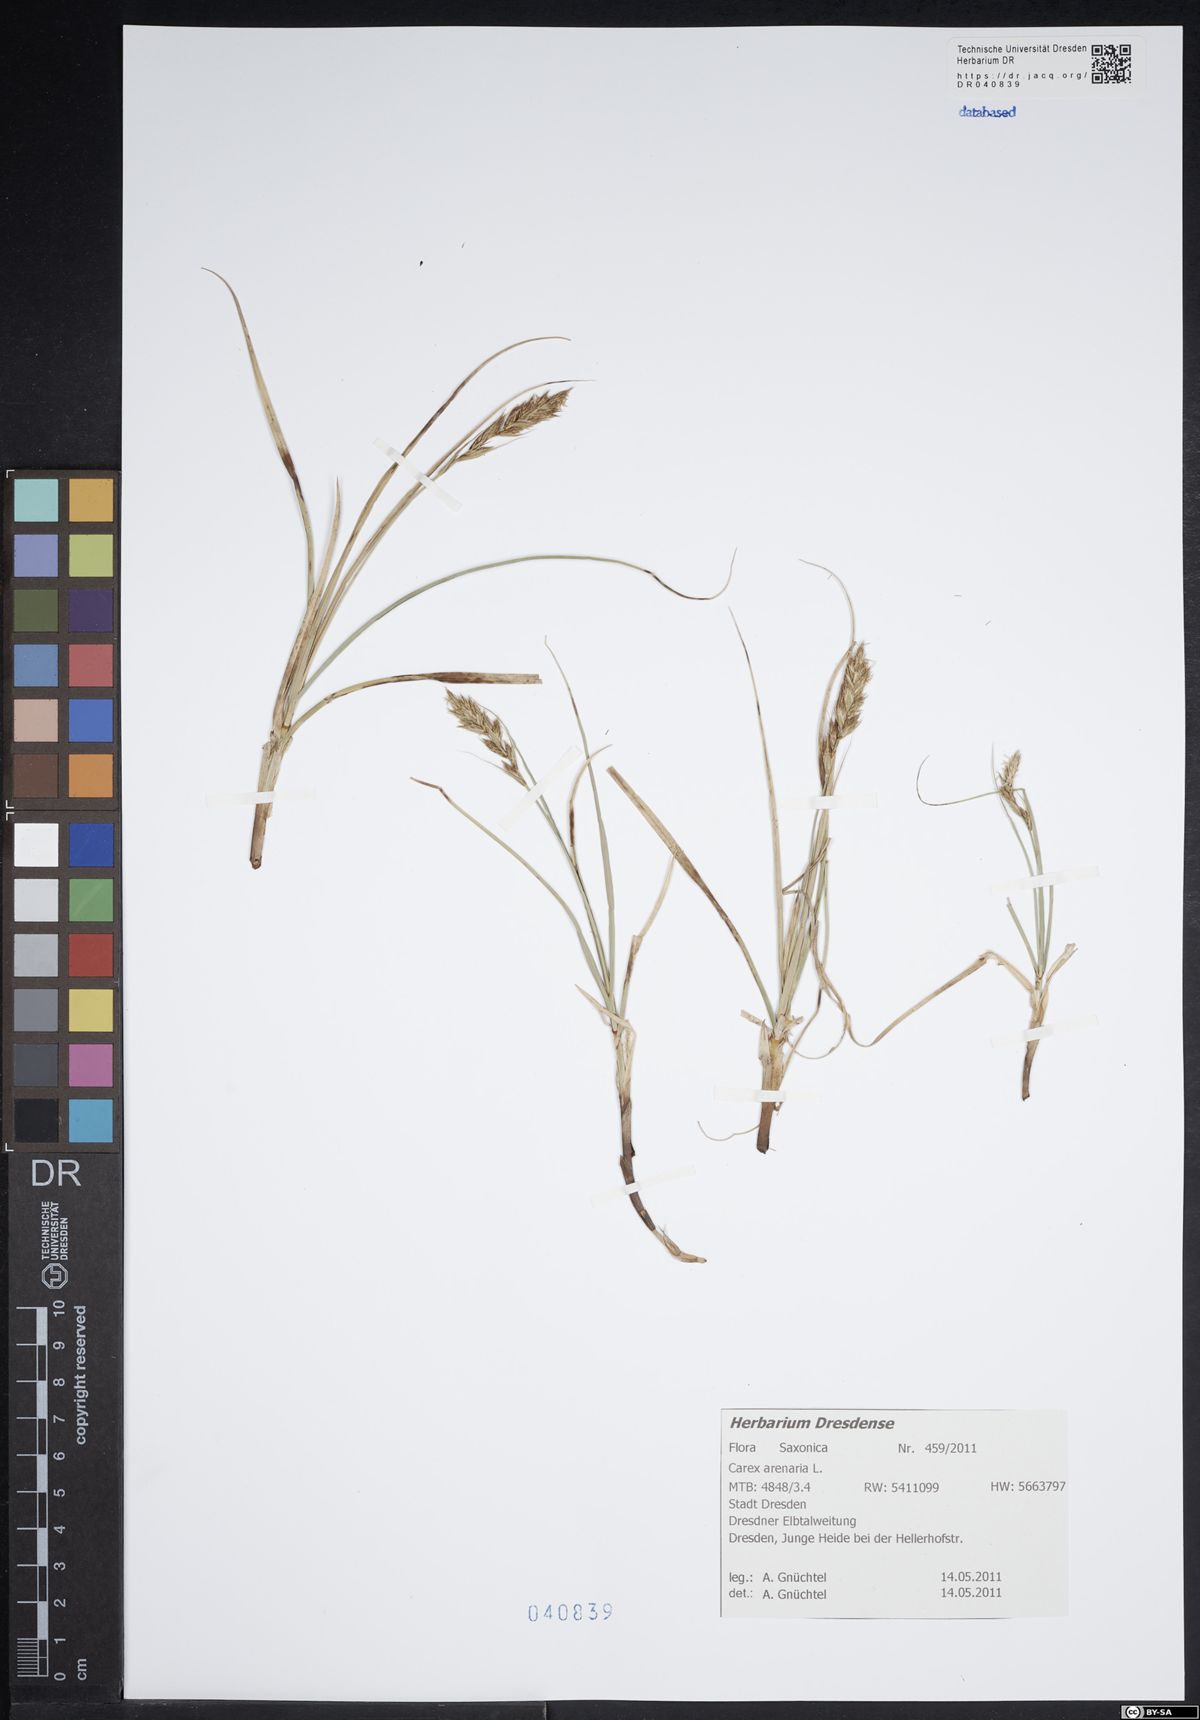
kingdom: Plantae
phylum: Tracheophyta
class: Liliopsida
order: Poales
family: Cyperaceae
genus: Carex
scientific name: Carex arenaria
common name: Sand sedge
